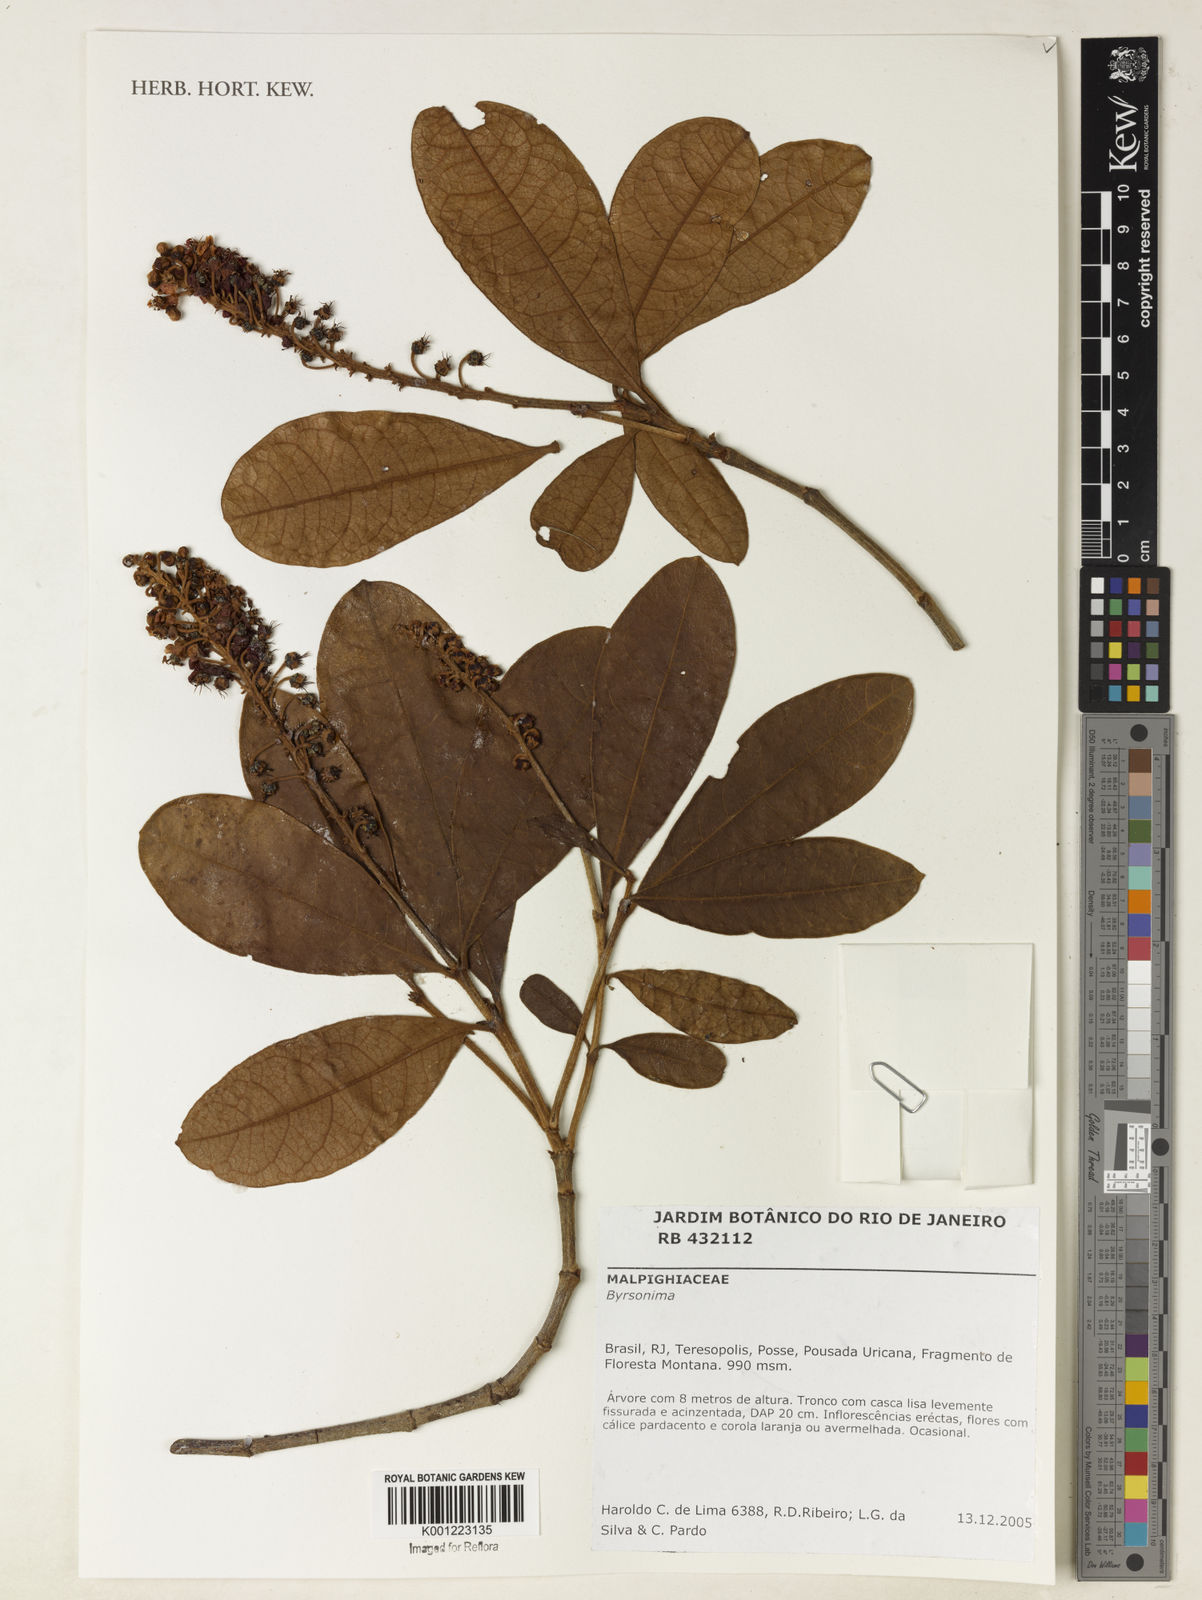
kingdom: Plantae
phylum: Tracheophyta
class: Magnoliopsida
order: Malpighiales
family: Malpighiaceae
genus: Byrsonima
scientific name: Byrsonima
